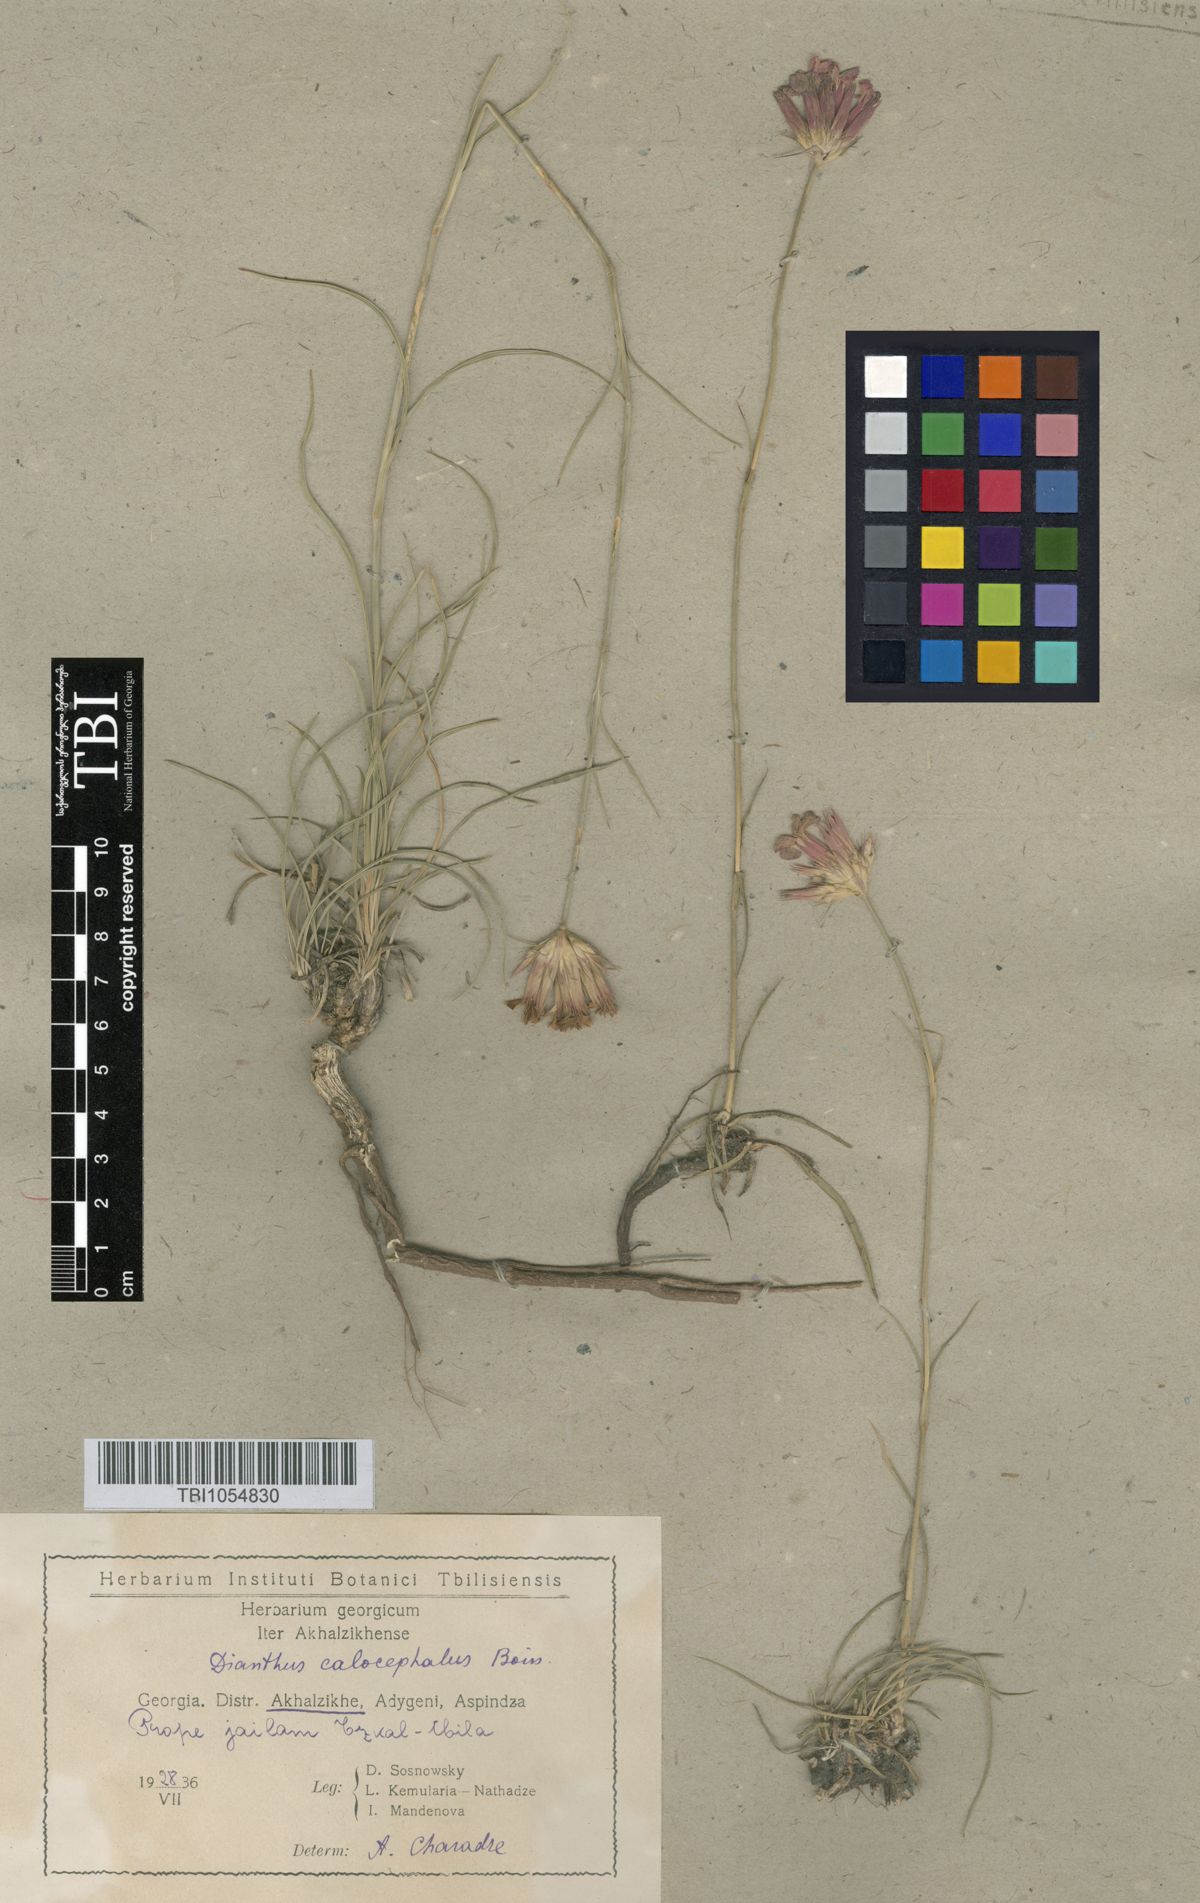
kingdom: Plantae
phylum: Tracheophyta
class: Magnoliopsida
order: Caryophyllales
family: Caryophyllaceae
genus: Dianthus
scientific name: Dianthus cruentus
